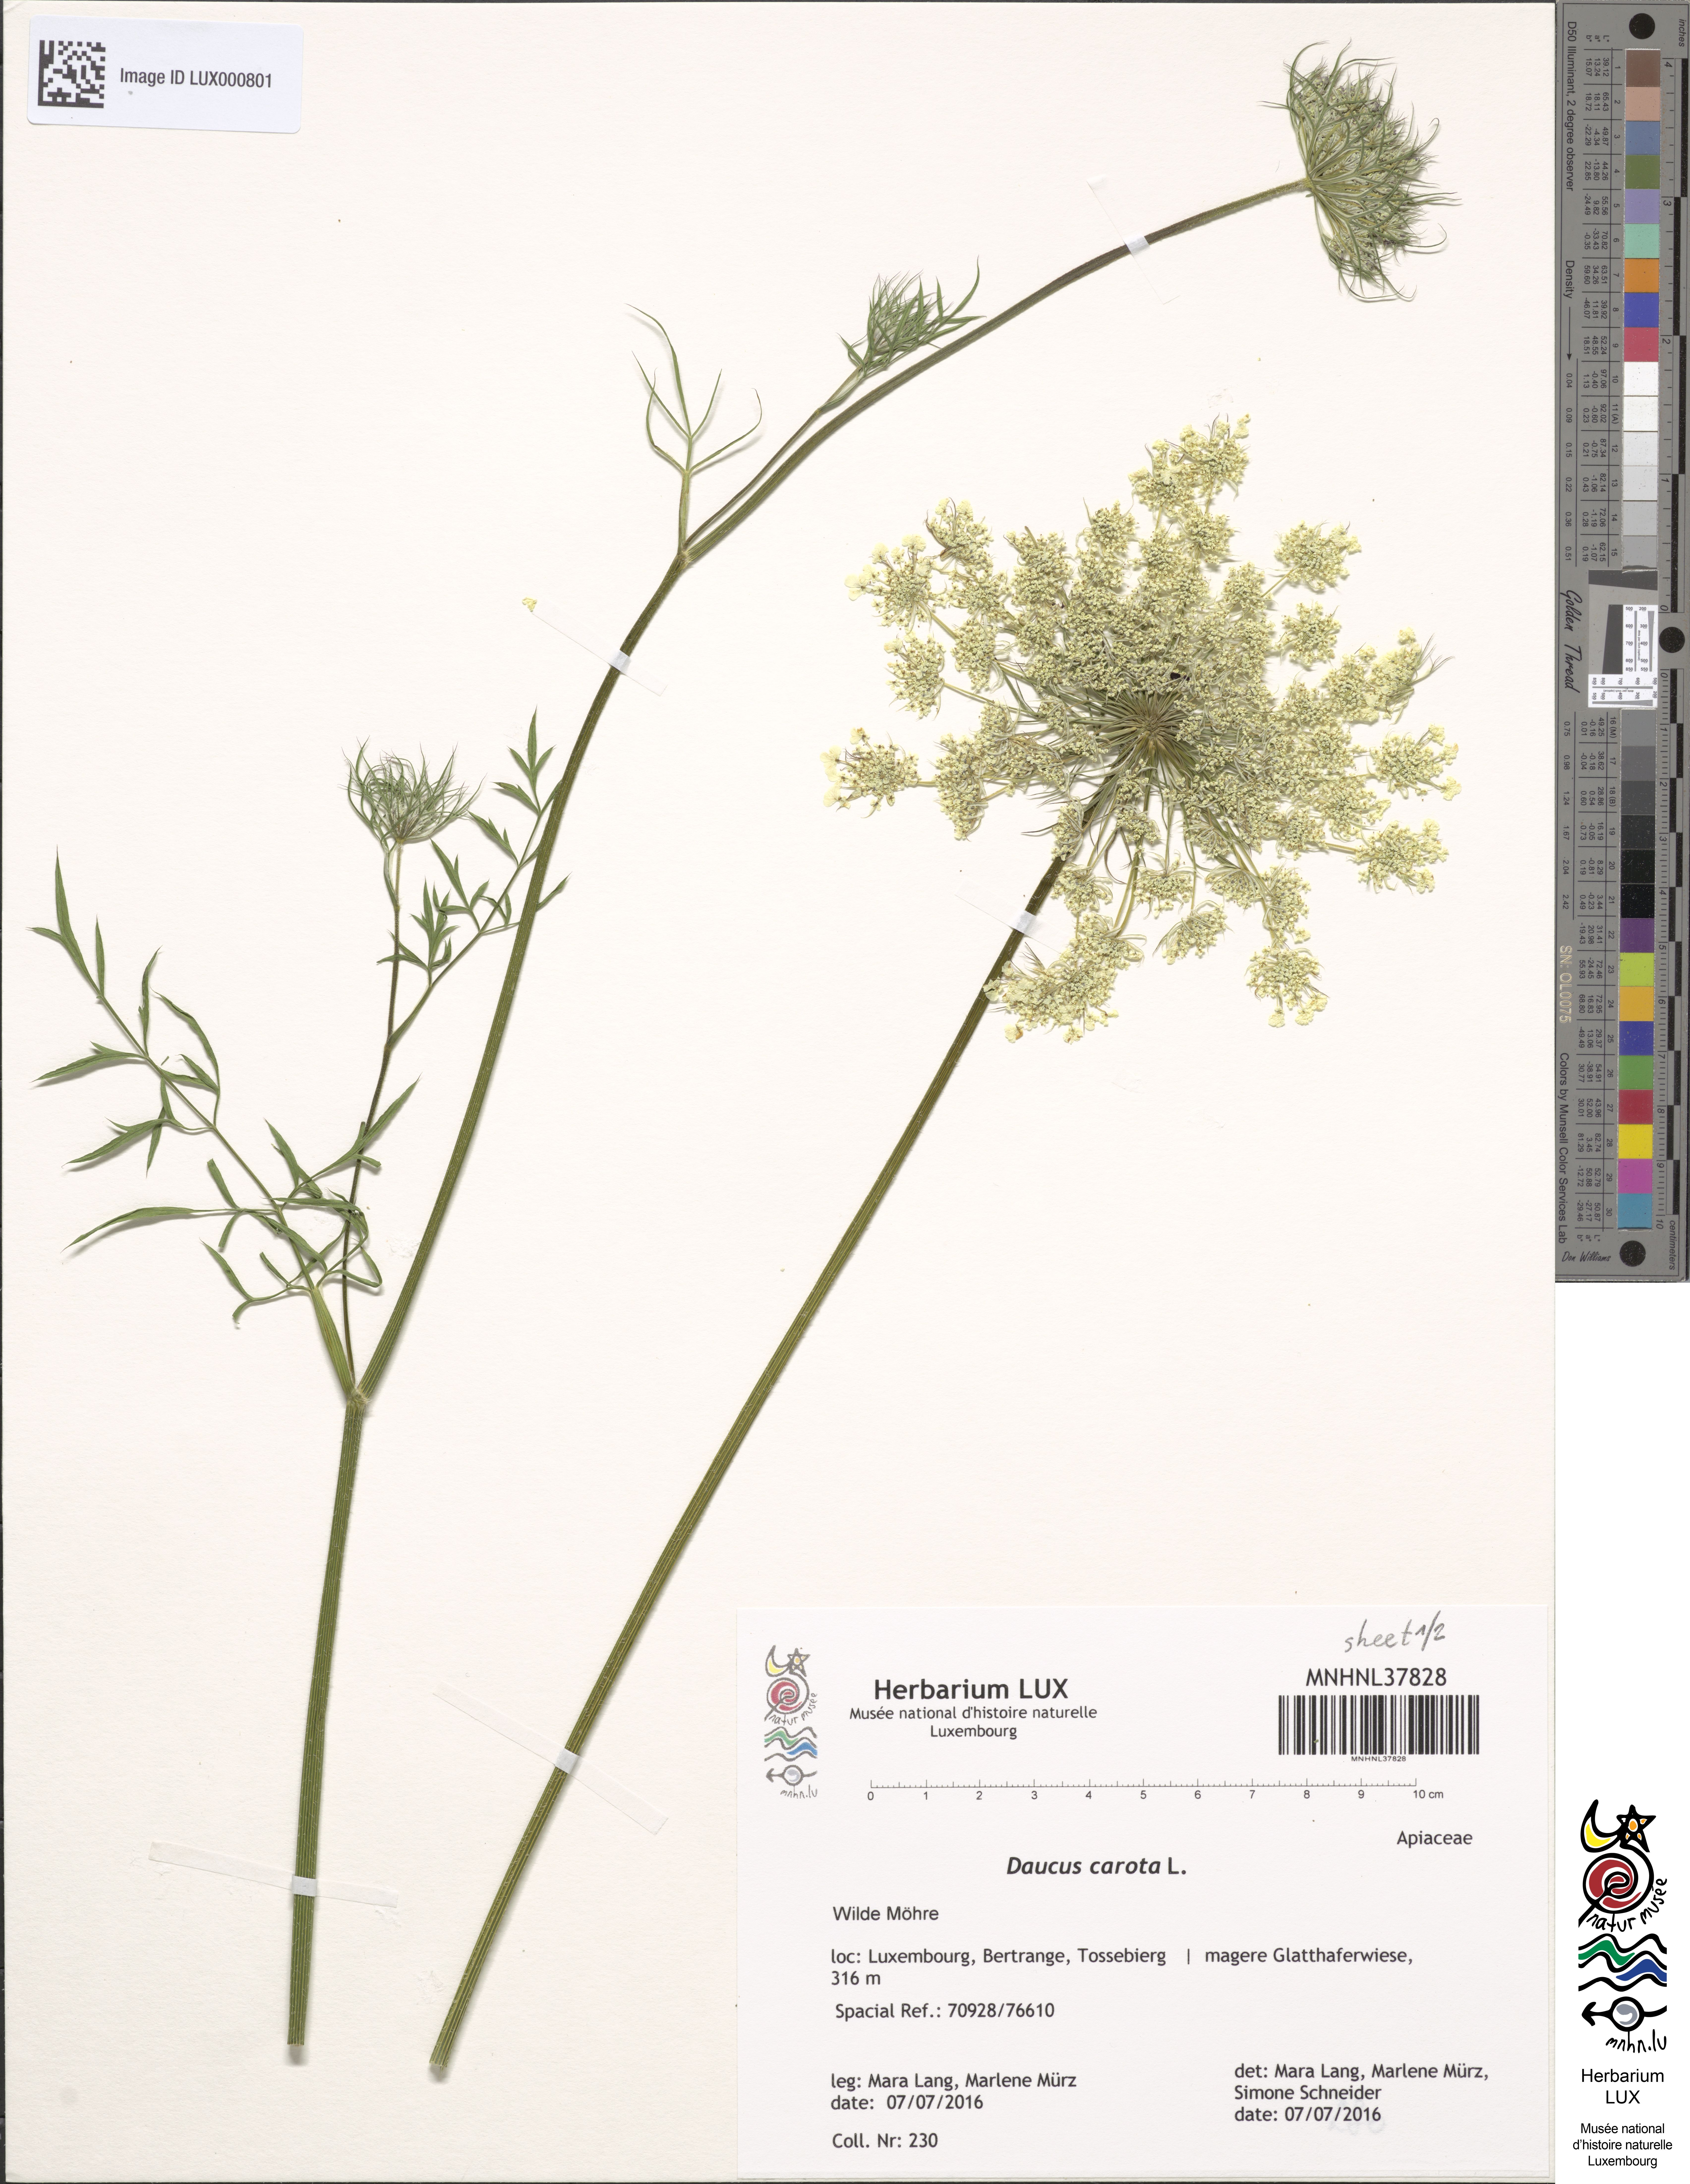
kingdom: Plantae
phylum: Tracheophyta
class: Magnoliopsida
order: Apiales
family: Apiaceae
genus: Daucus
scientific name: Daucus carota
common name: Wild carrot
